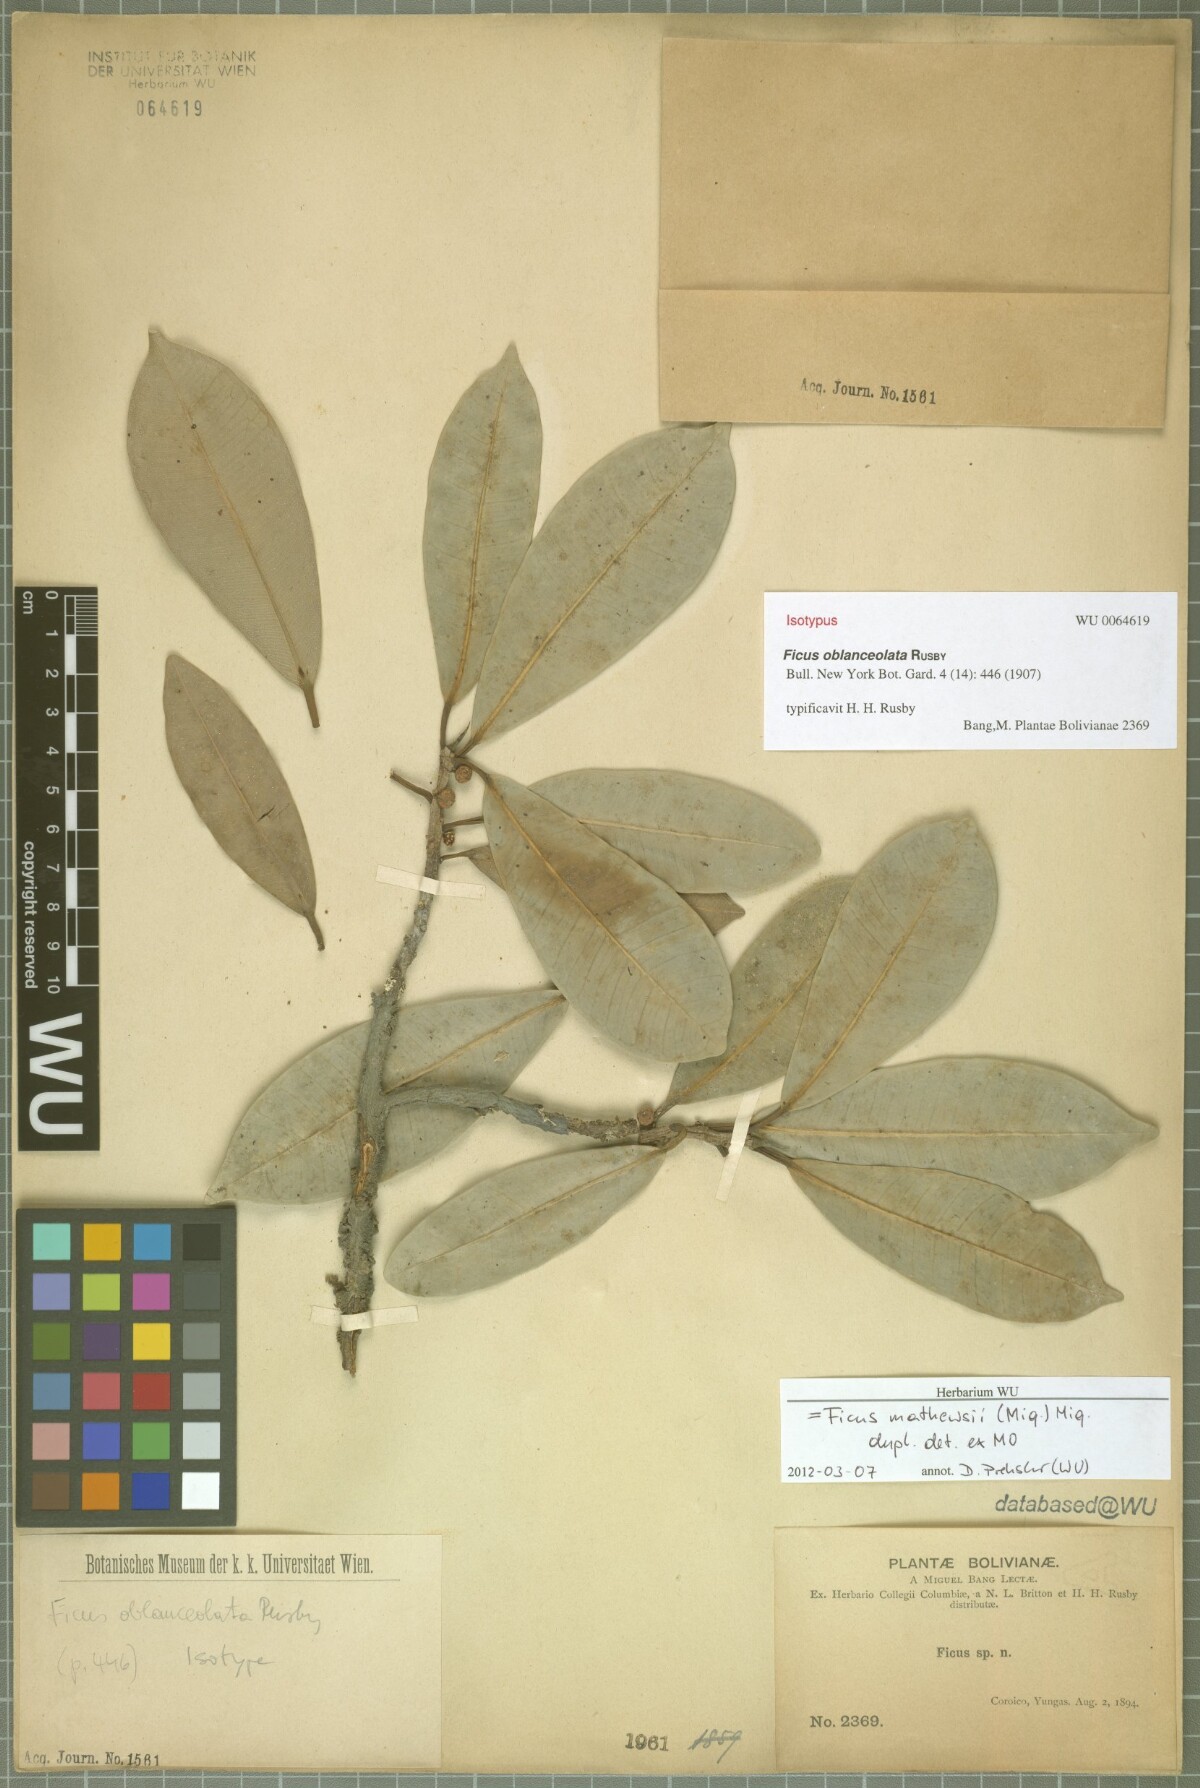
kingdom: Plantae
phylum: Tracheophyta
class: Magnoliopsida
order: Rosales
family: Moraceae
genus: Ficus
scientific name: Ficus
